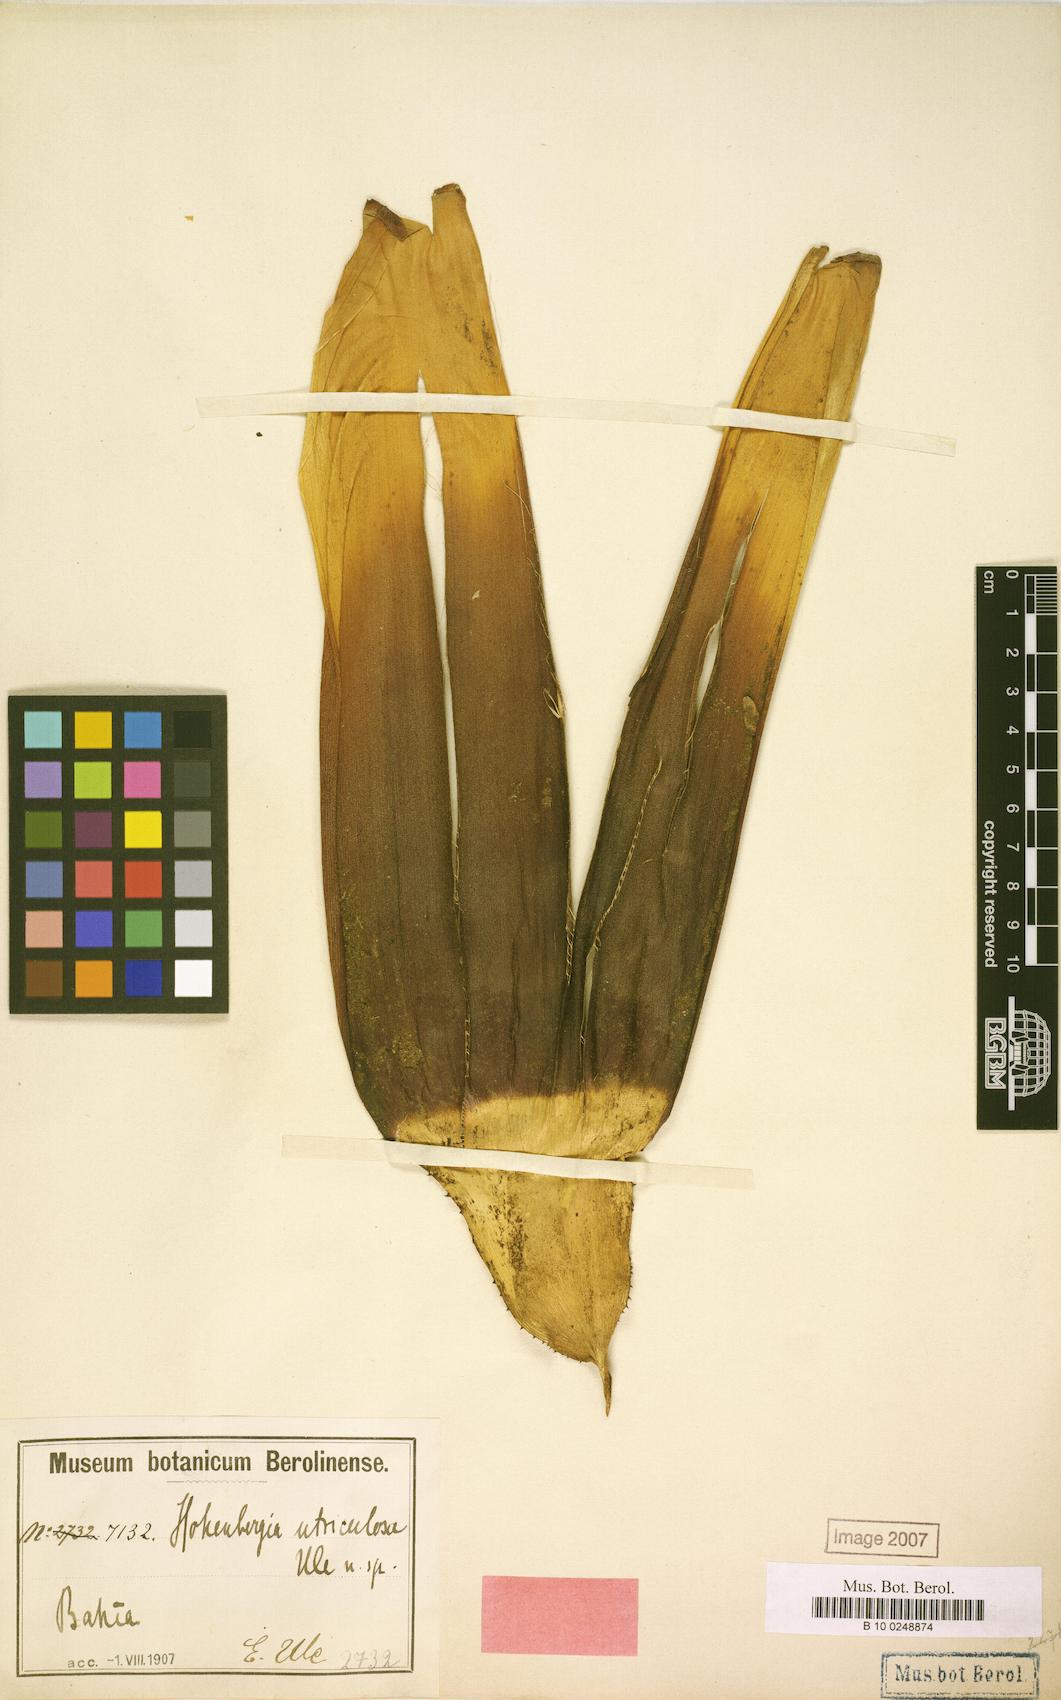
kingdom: Plantae
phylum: Tracheophyta
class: Liliopsida
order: Poales
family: Bromeliaceae
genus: Hohenbergia
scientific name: Hohenbergia utriculosa
